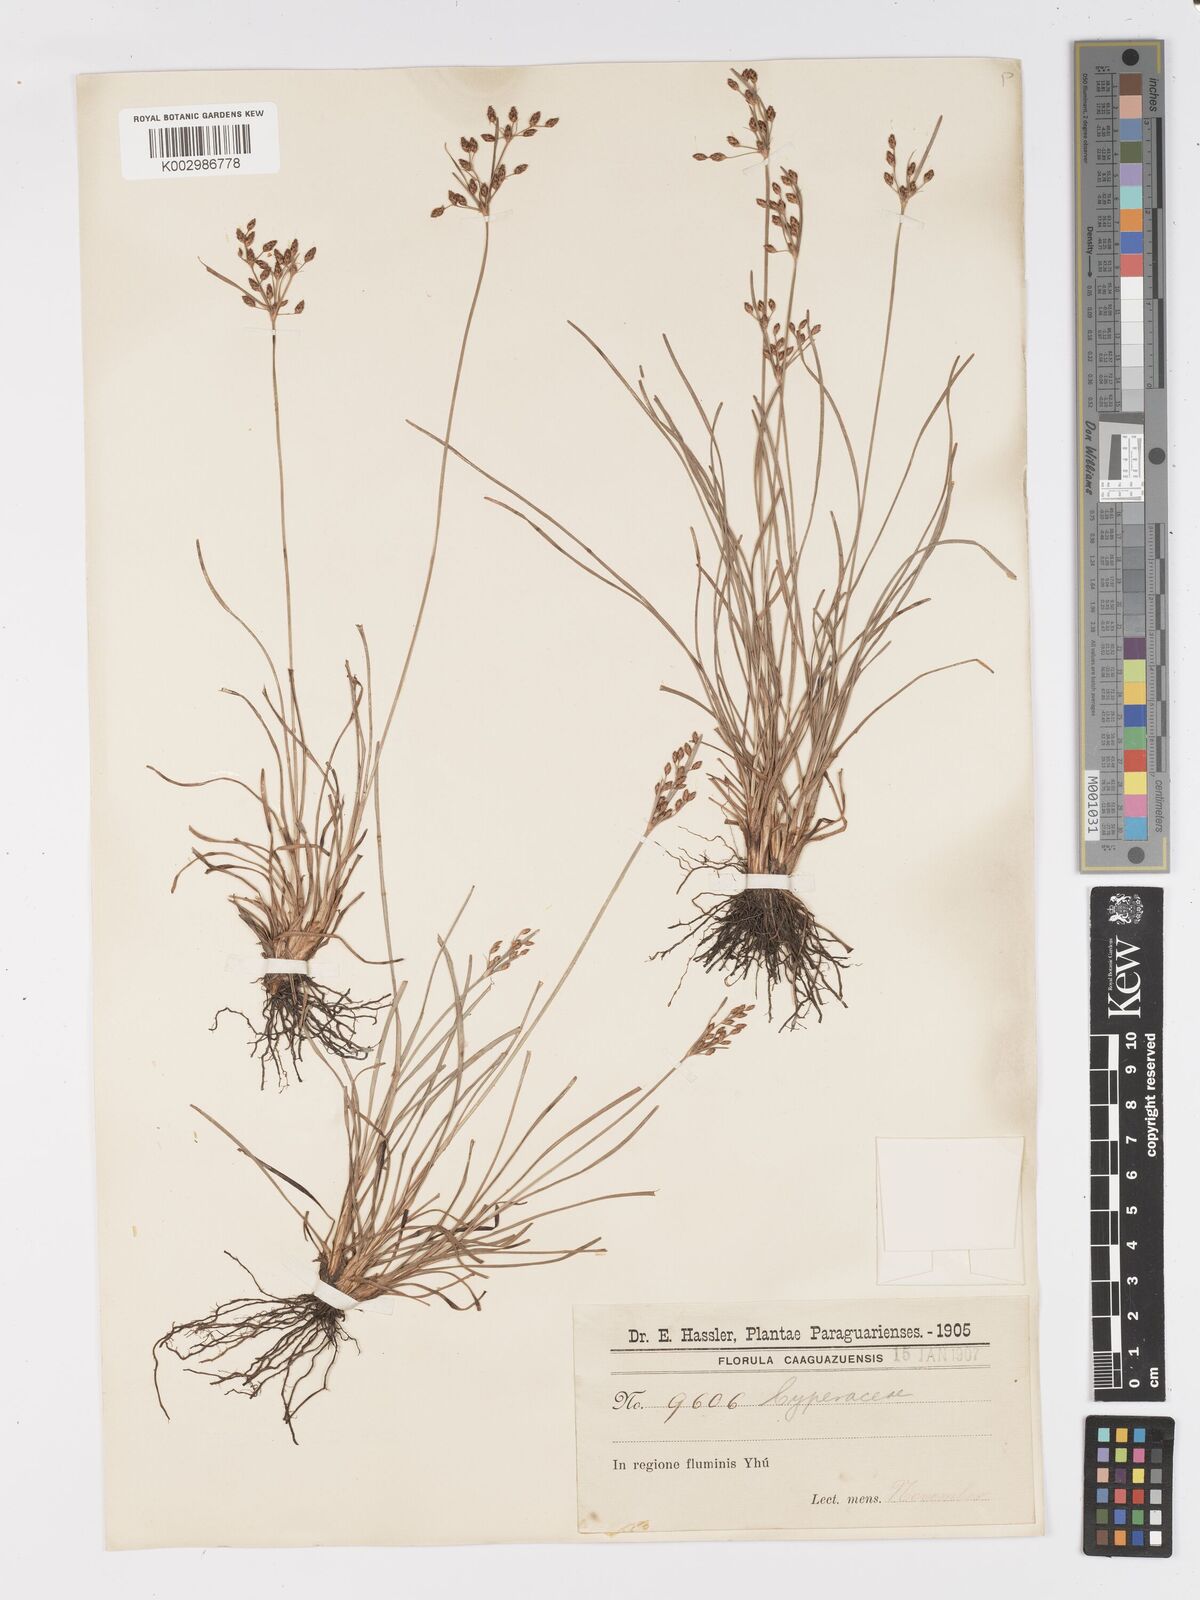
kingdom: Plantae
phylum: Tracheophyta
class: Liliopsida
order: Poales
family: Cyperaceae
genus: Fimbristylis
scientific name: Fimbristylis dichotoma
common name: Forked fimbry
